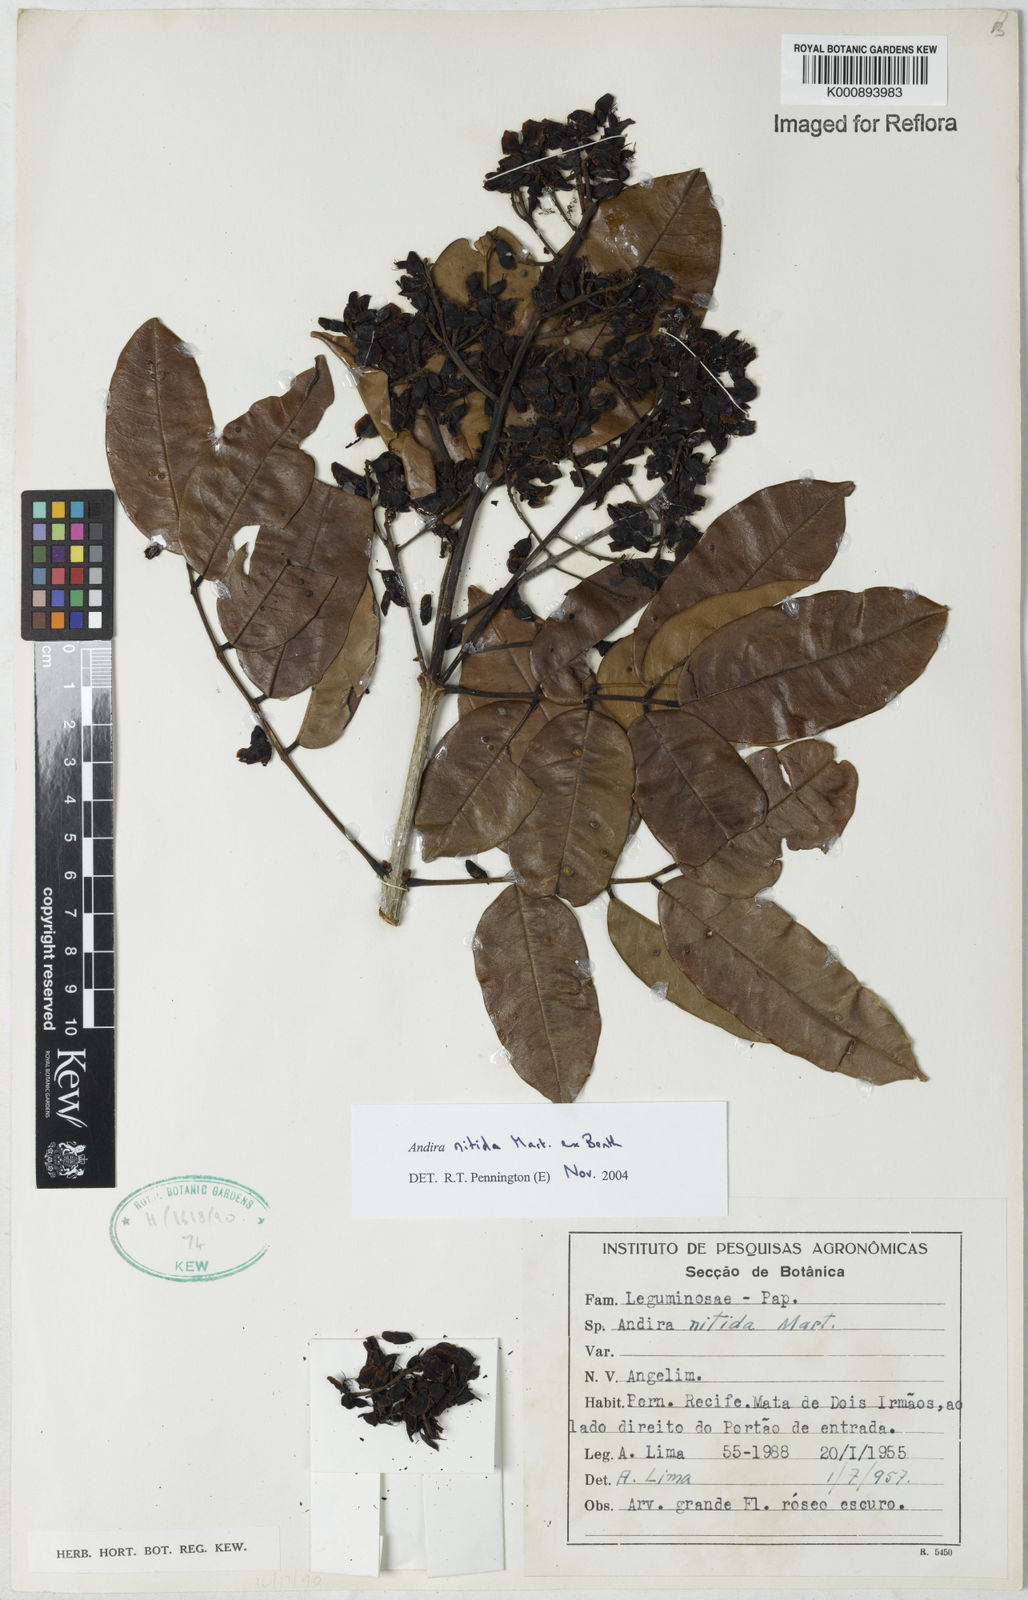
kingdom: Plantae
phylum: Tracheophyta
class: Magnoliopsida
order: Fabales
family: Fabaceae
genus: Andira
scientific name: Andira nitida
